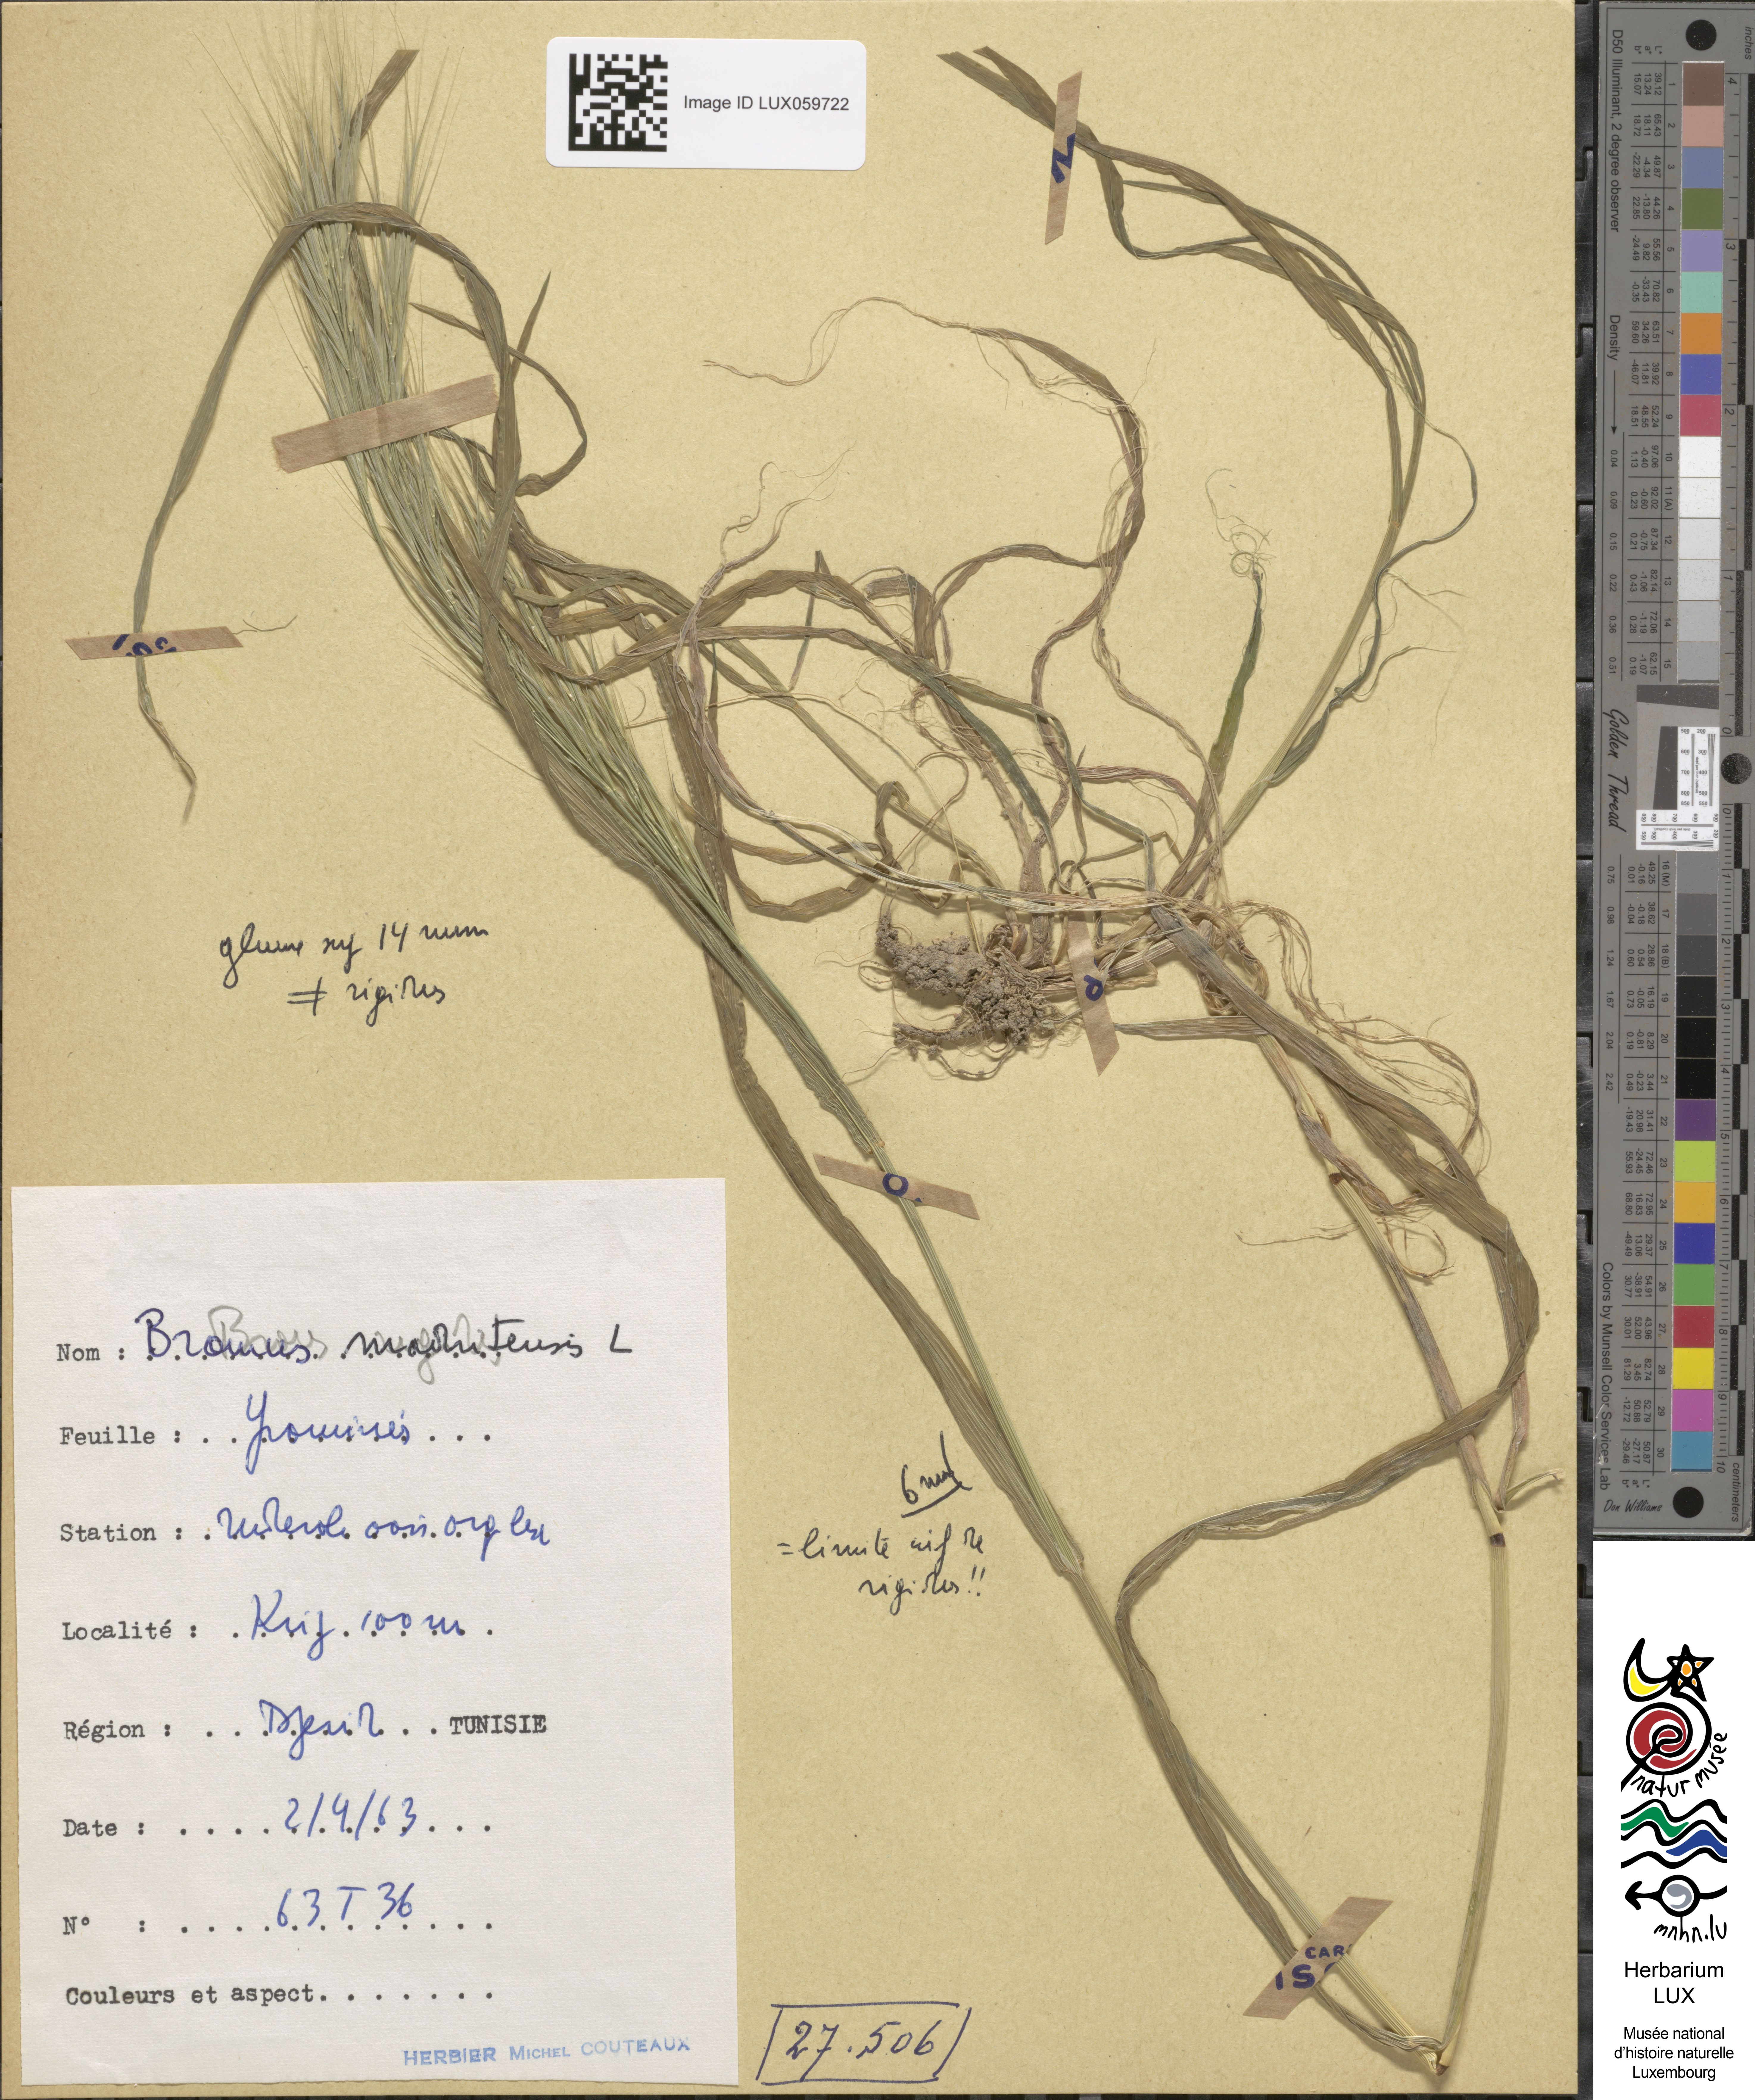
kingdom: Plantae
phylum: Tracheophyta
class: Liliopsida
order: Poales
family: Poaceae
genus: Bromus
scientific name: Bromus madritensis
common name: Compact brome
